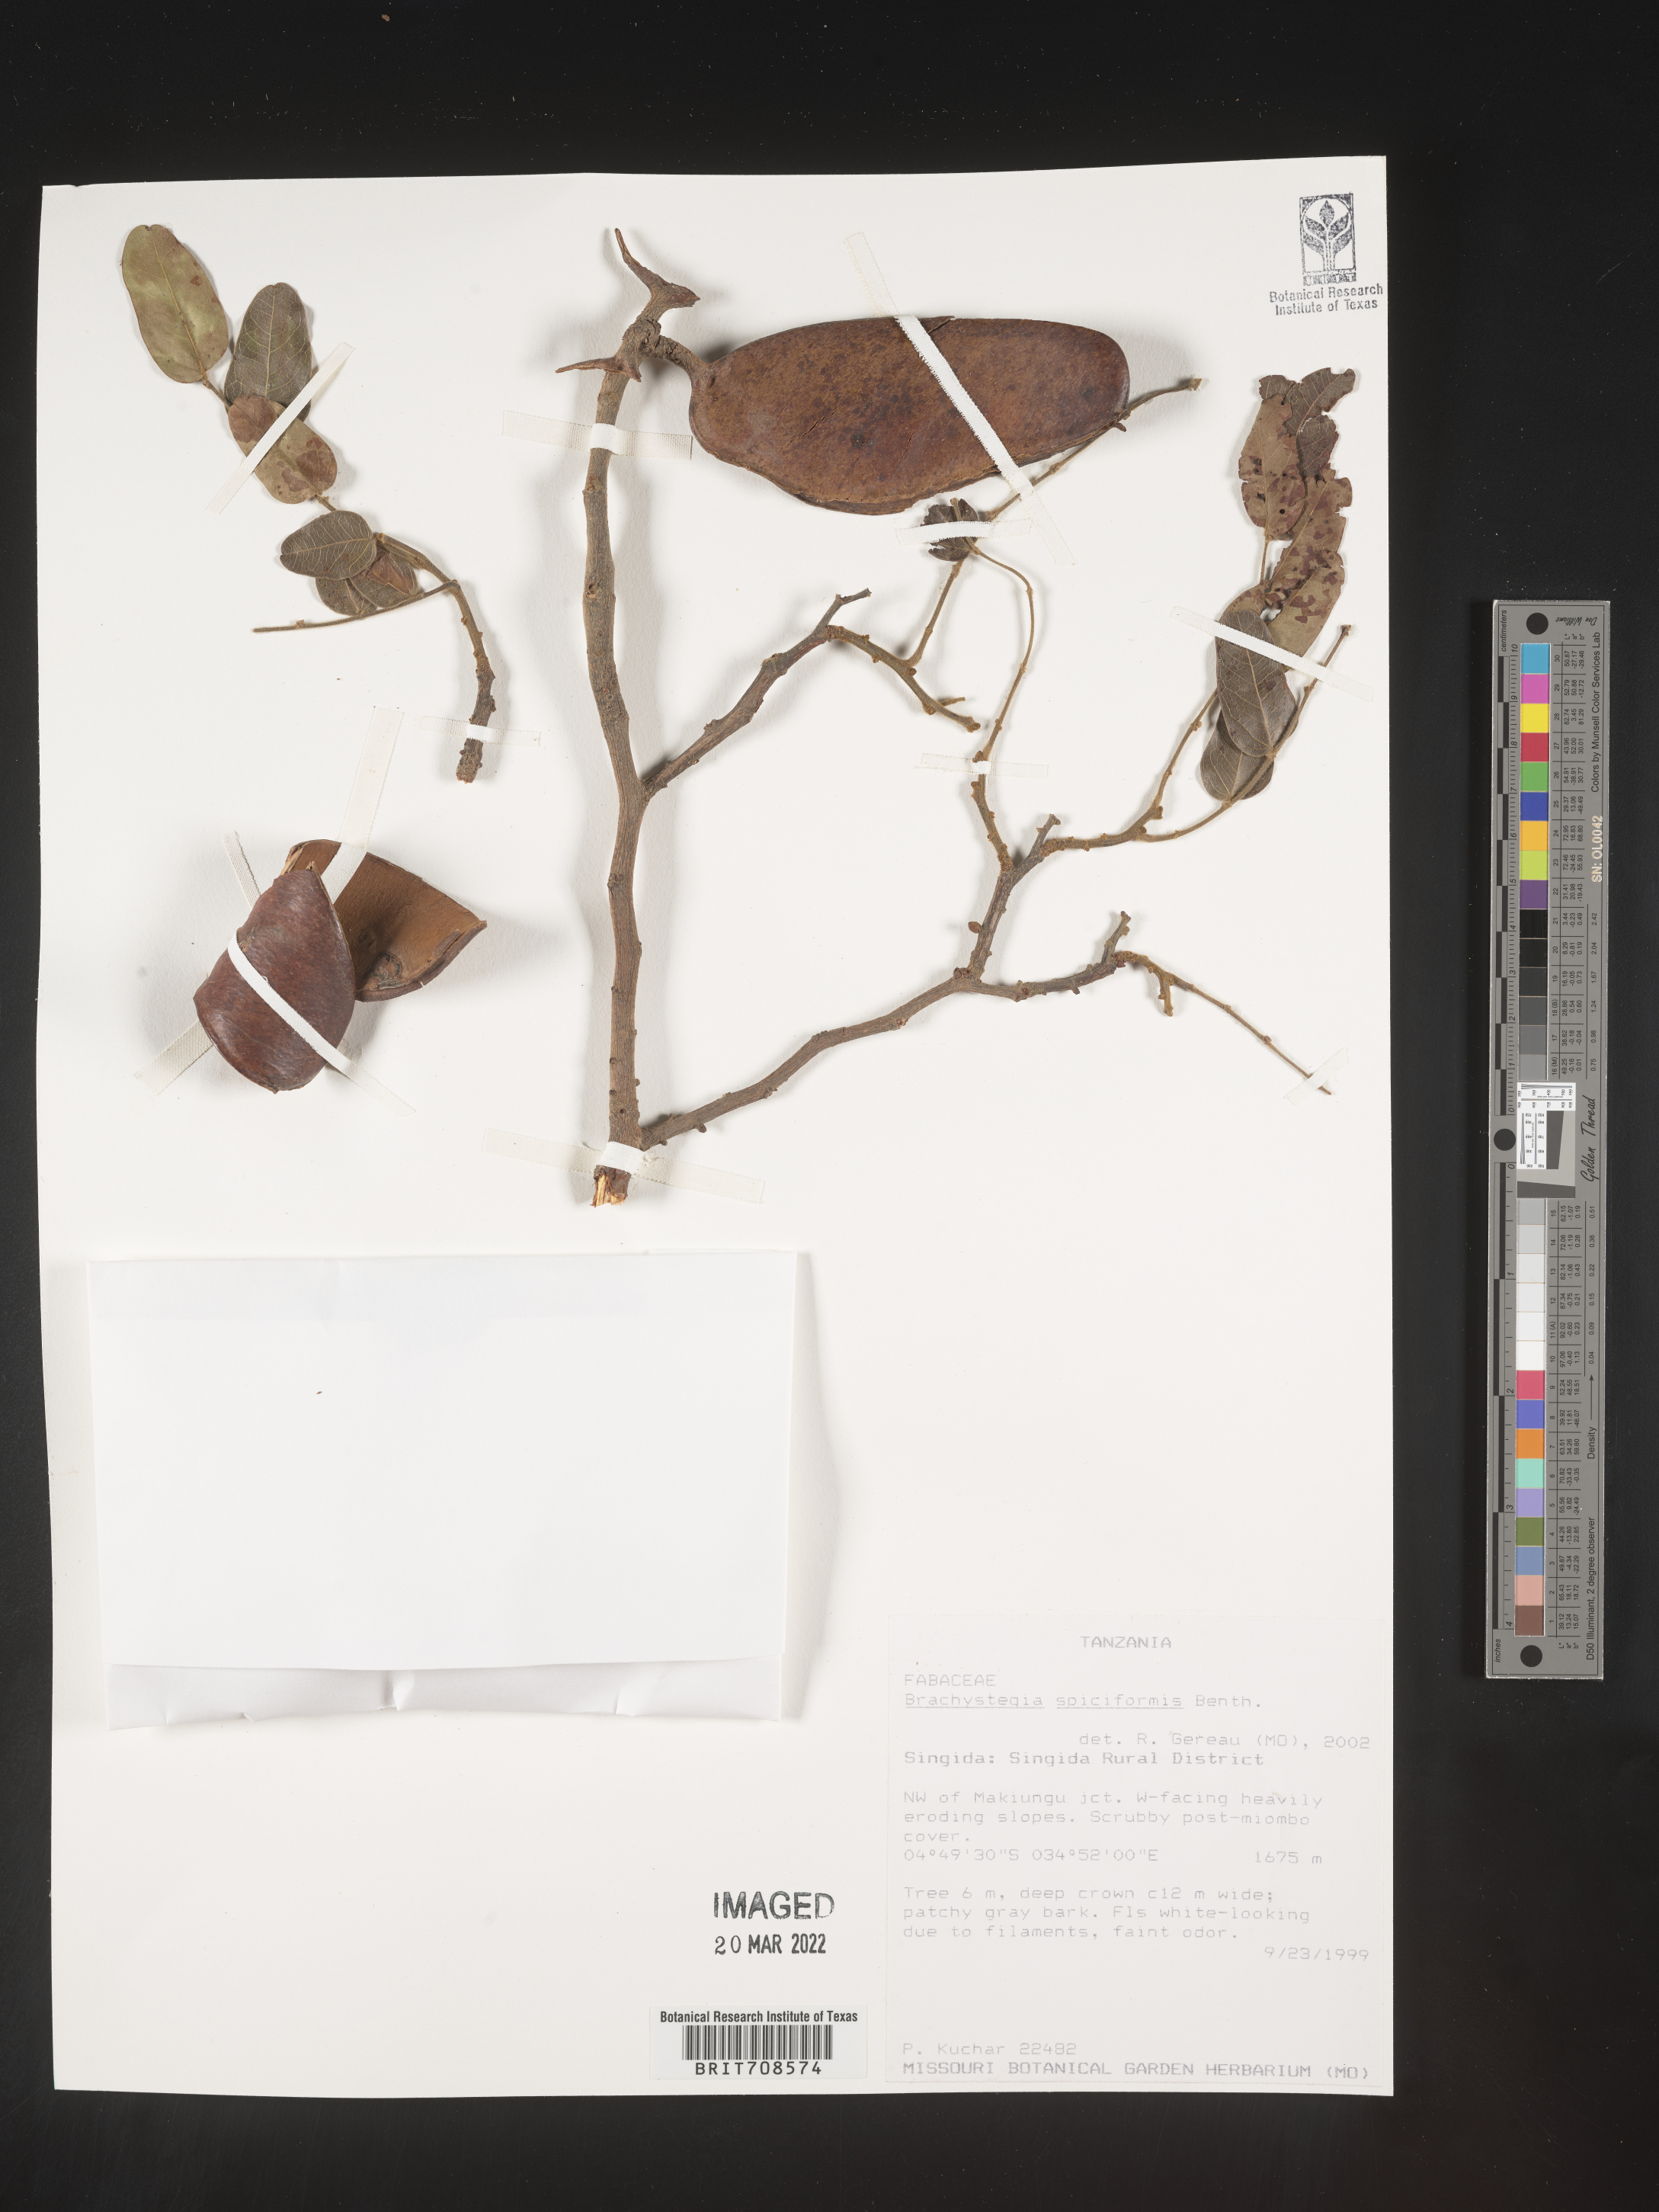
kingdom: Plantae
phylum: Tracheophyta
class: Magnoliopsida
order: Fabales
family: Fabaceae
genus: Brachystegia
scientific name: Brachystegia
